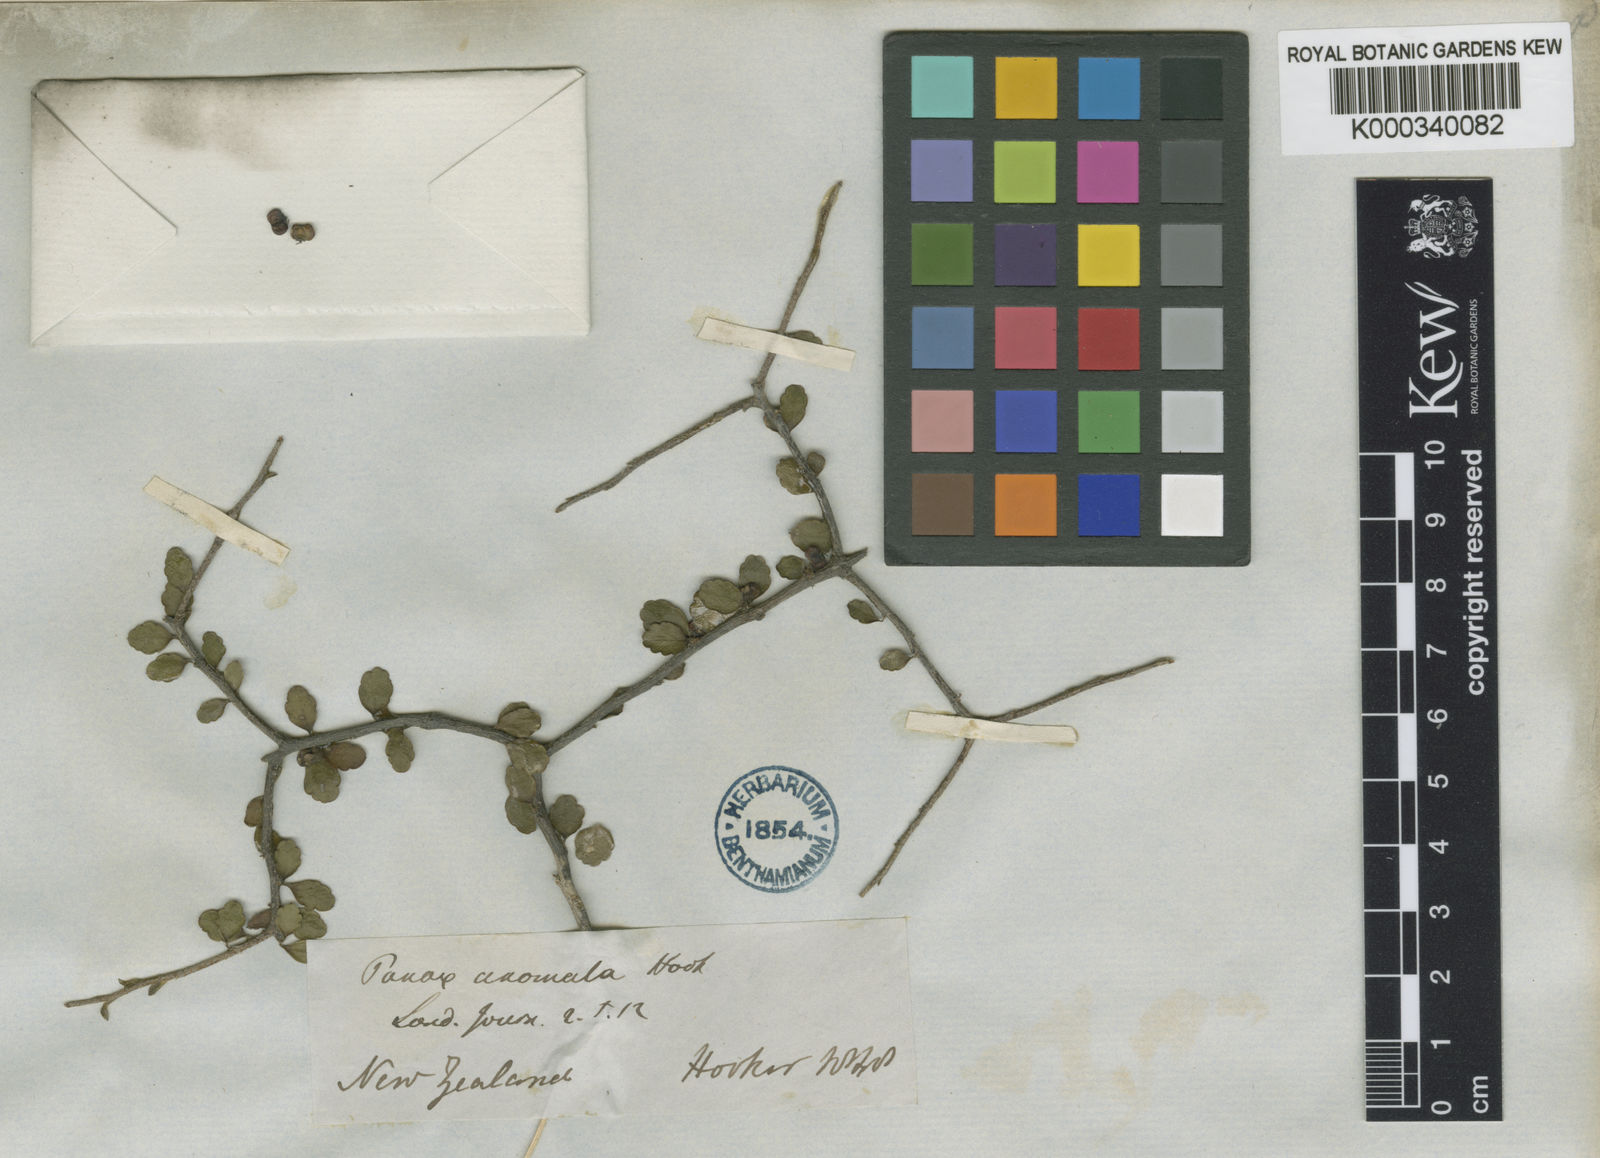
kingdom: Plantae
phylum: Tracheophyta
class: Magnoliopsida
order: Apiales
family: Araliaceae
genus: Raukaua
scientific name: Raukaua anomalus
